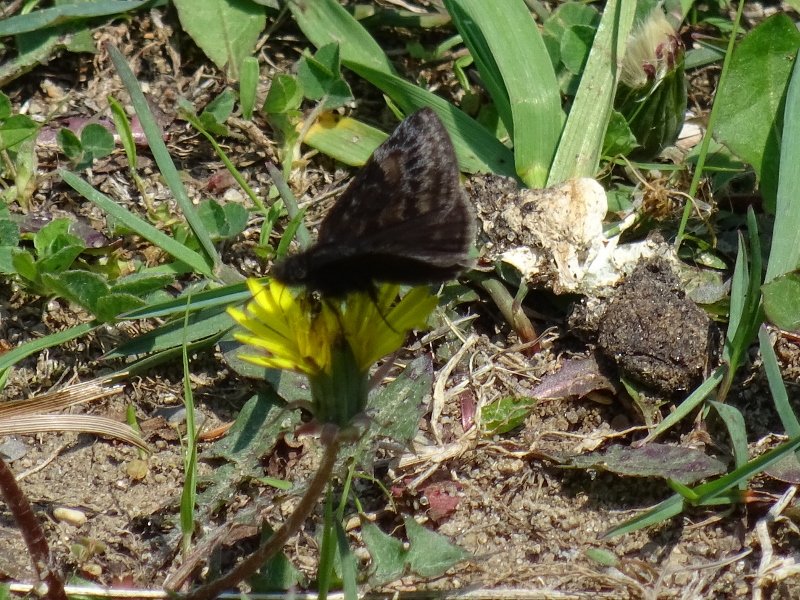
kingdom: Animalia
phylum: Arthropoda
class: Insecta
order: Lepidoptera
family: Hesperiidae
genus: Erynnis
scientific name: Erynnis
